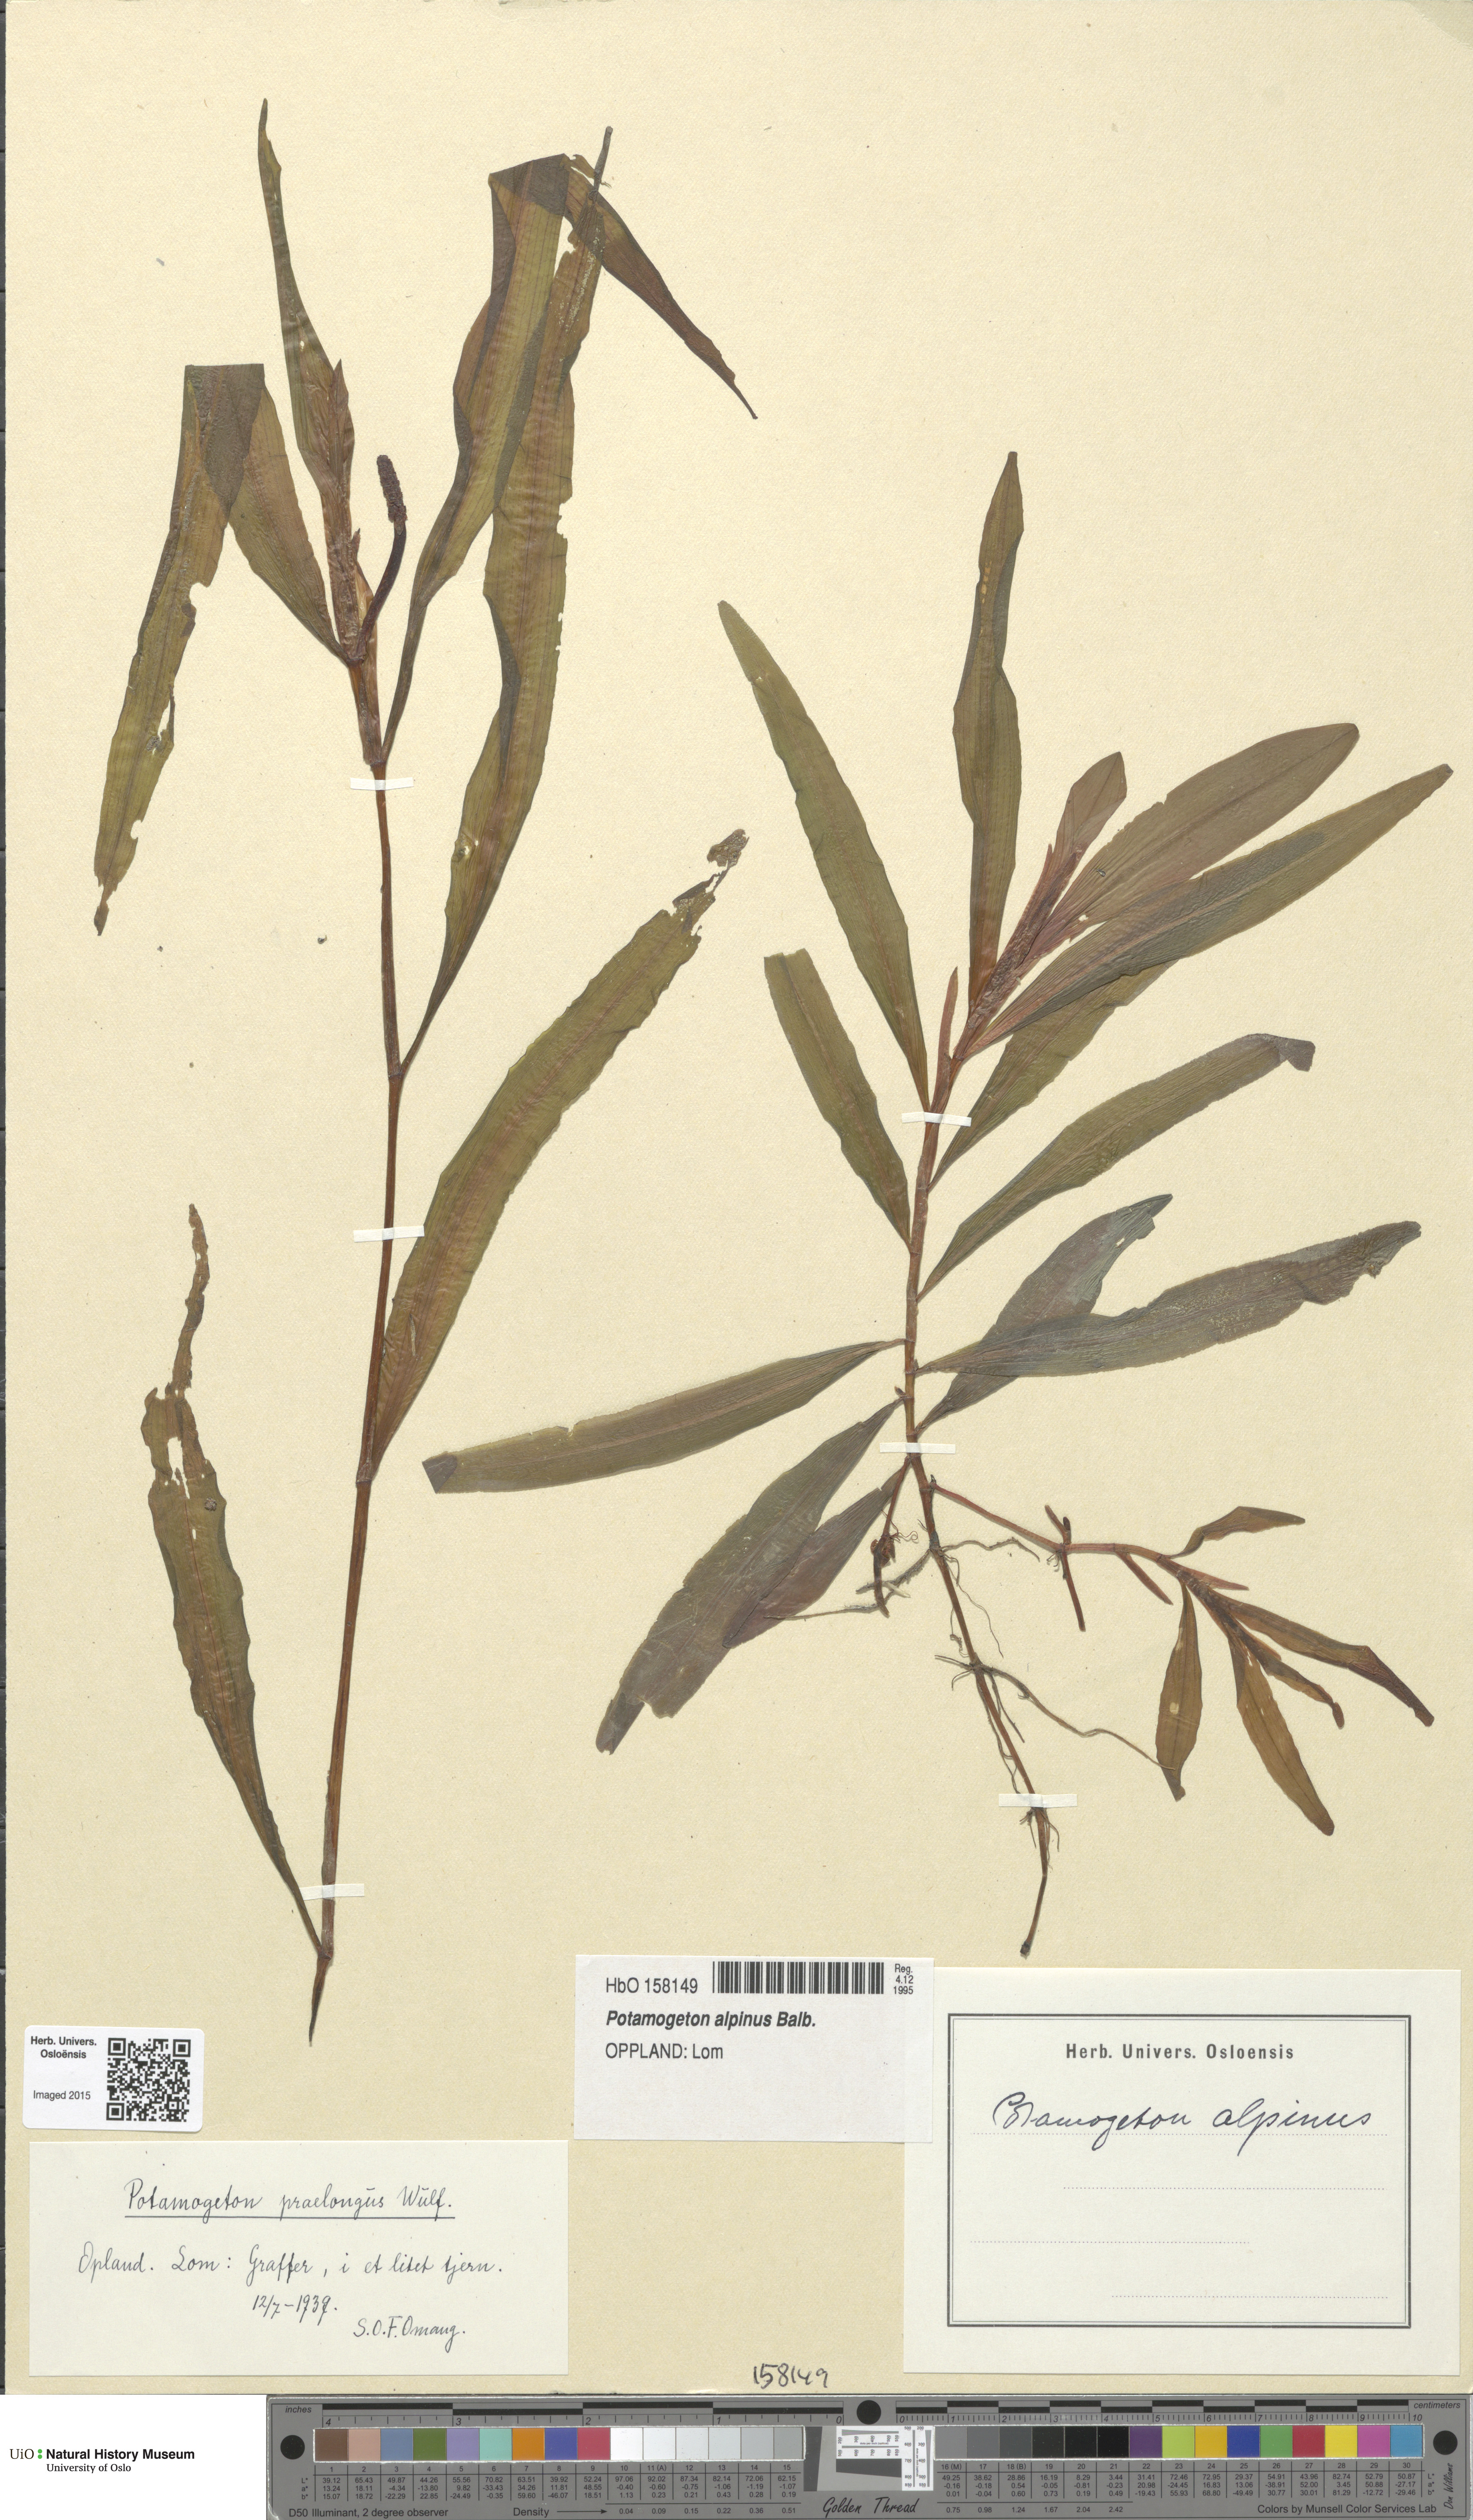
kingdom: Plantae
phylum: Tracheophyta
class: Liliopsida
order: Alismatales
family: Potamogetonaceae
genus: Potamogeton
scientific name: Potamogeton alpinus
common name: Red pondweed
